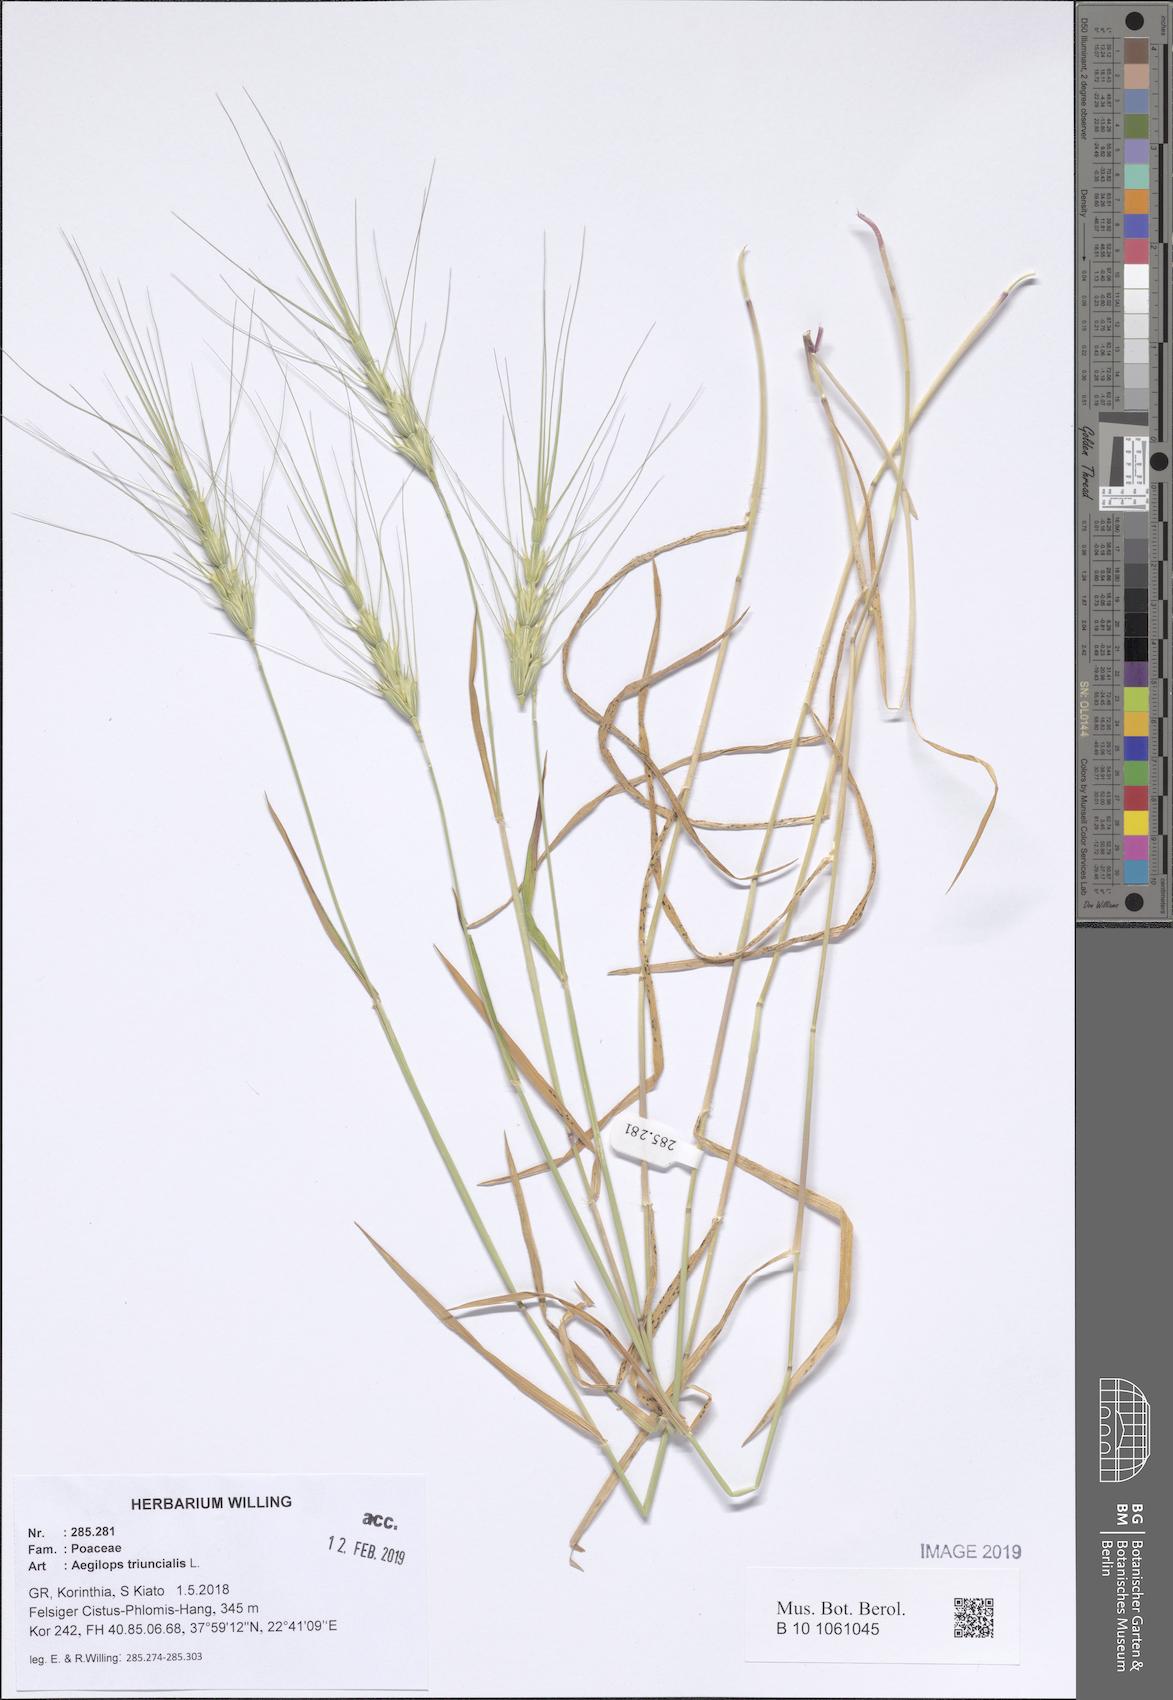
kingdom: Plantae
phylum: Tracheophyta
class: Liliopsida
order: Poales
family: Poaceae
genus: Aegilops
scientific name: Aegilops triuncialis
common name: Barb goat grass
